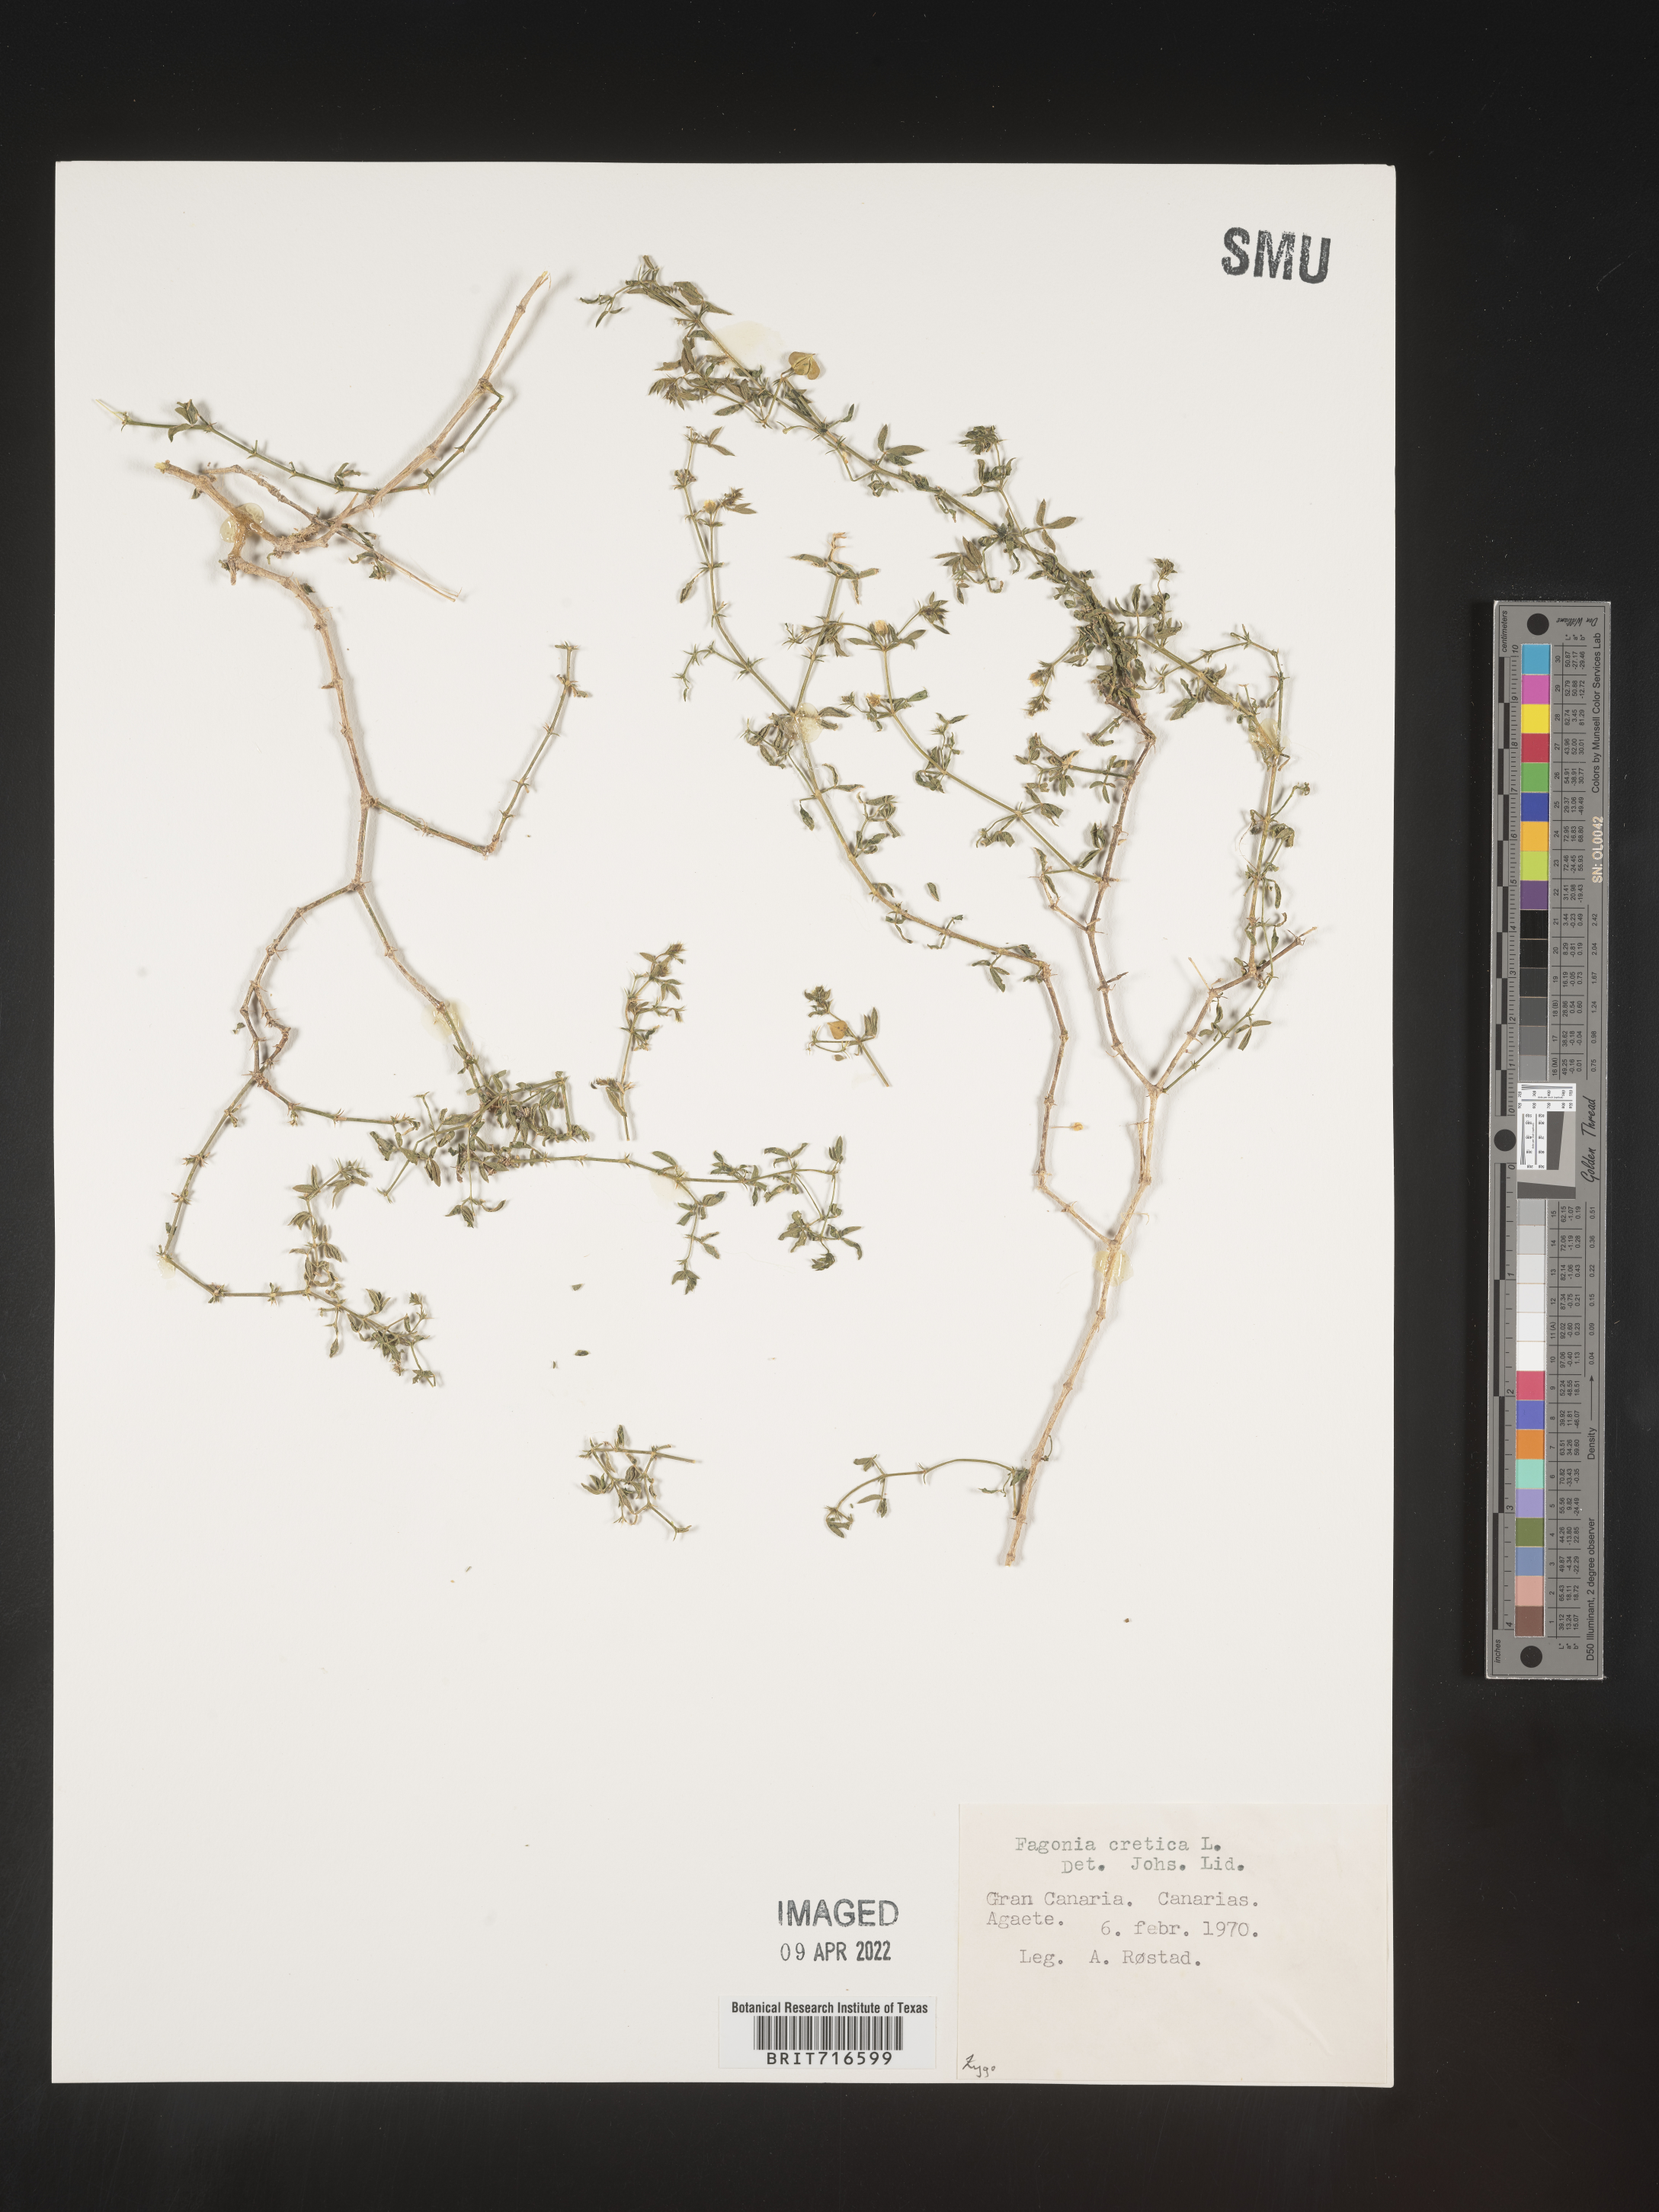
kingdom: Plantae
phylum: Tracheophyta
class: Magnoliopsida
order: Zygophyllales
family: Zygophyllaceae
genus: Fagonia
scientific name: Fagonia
